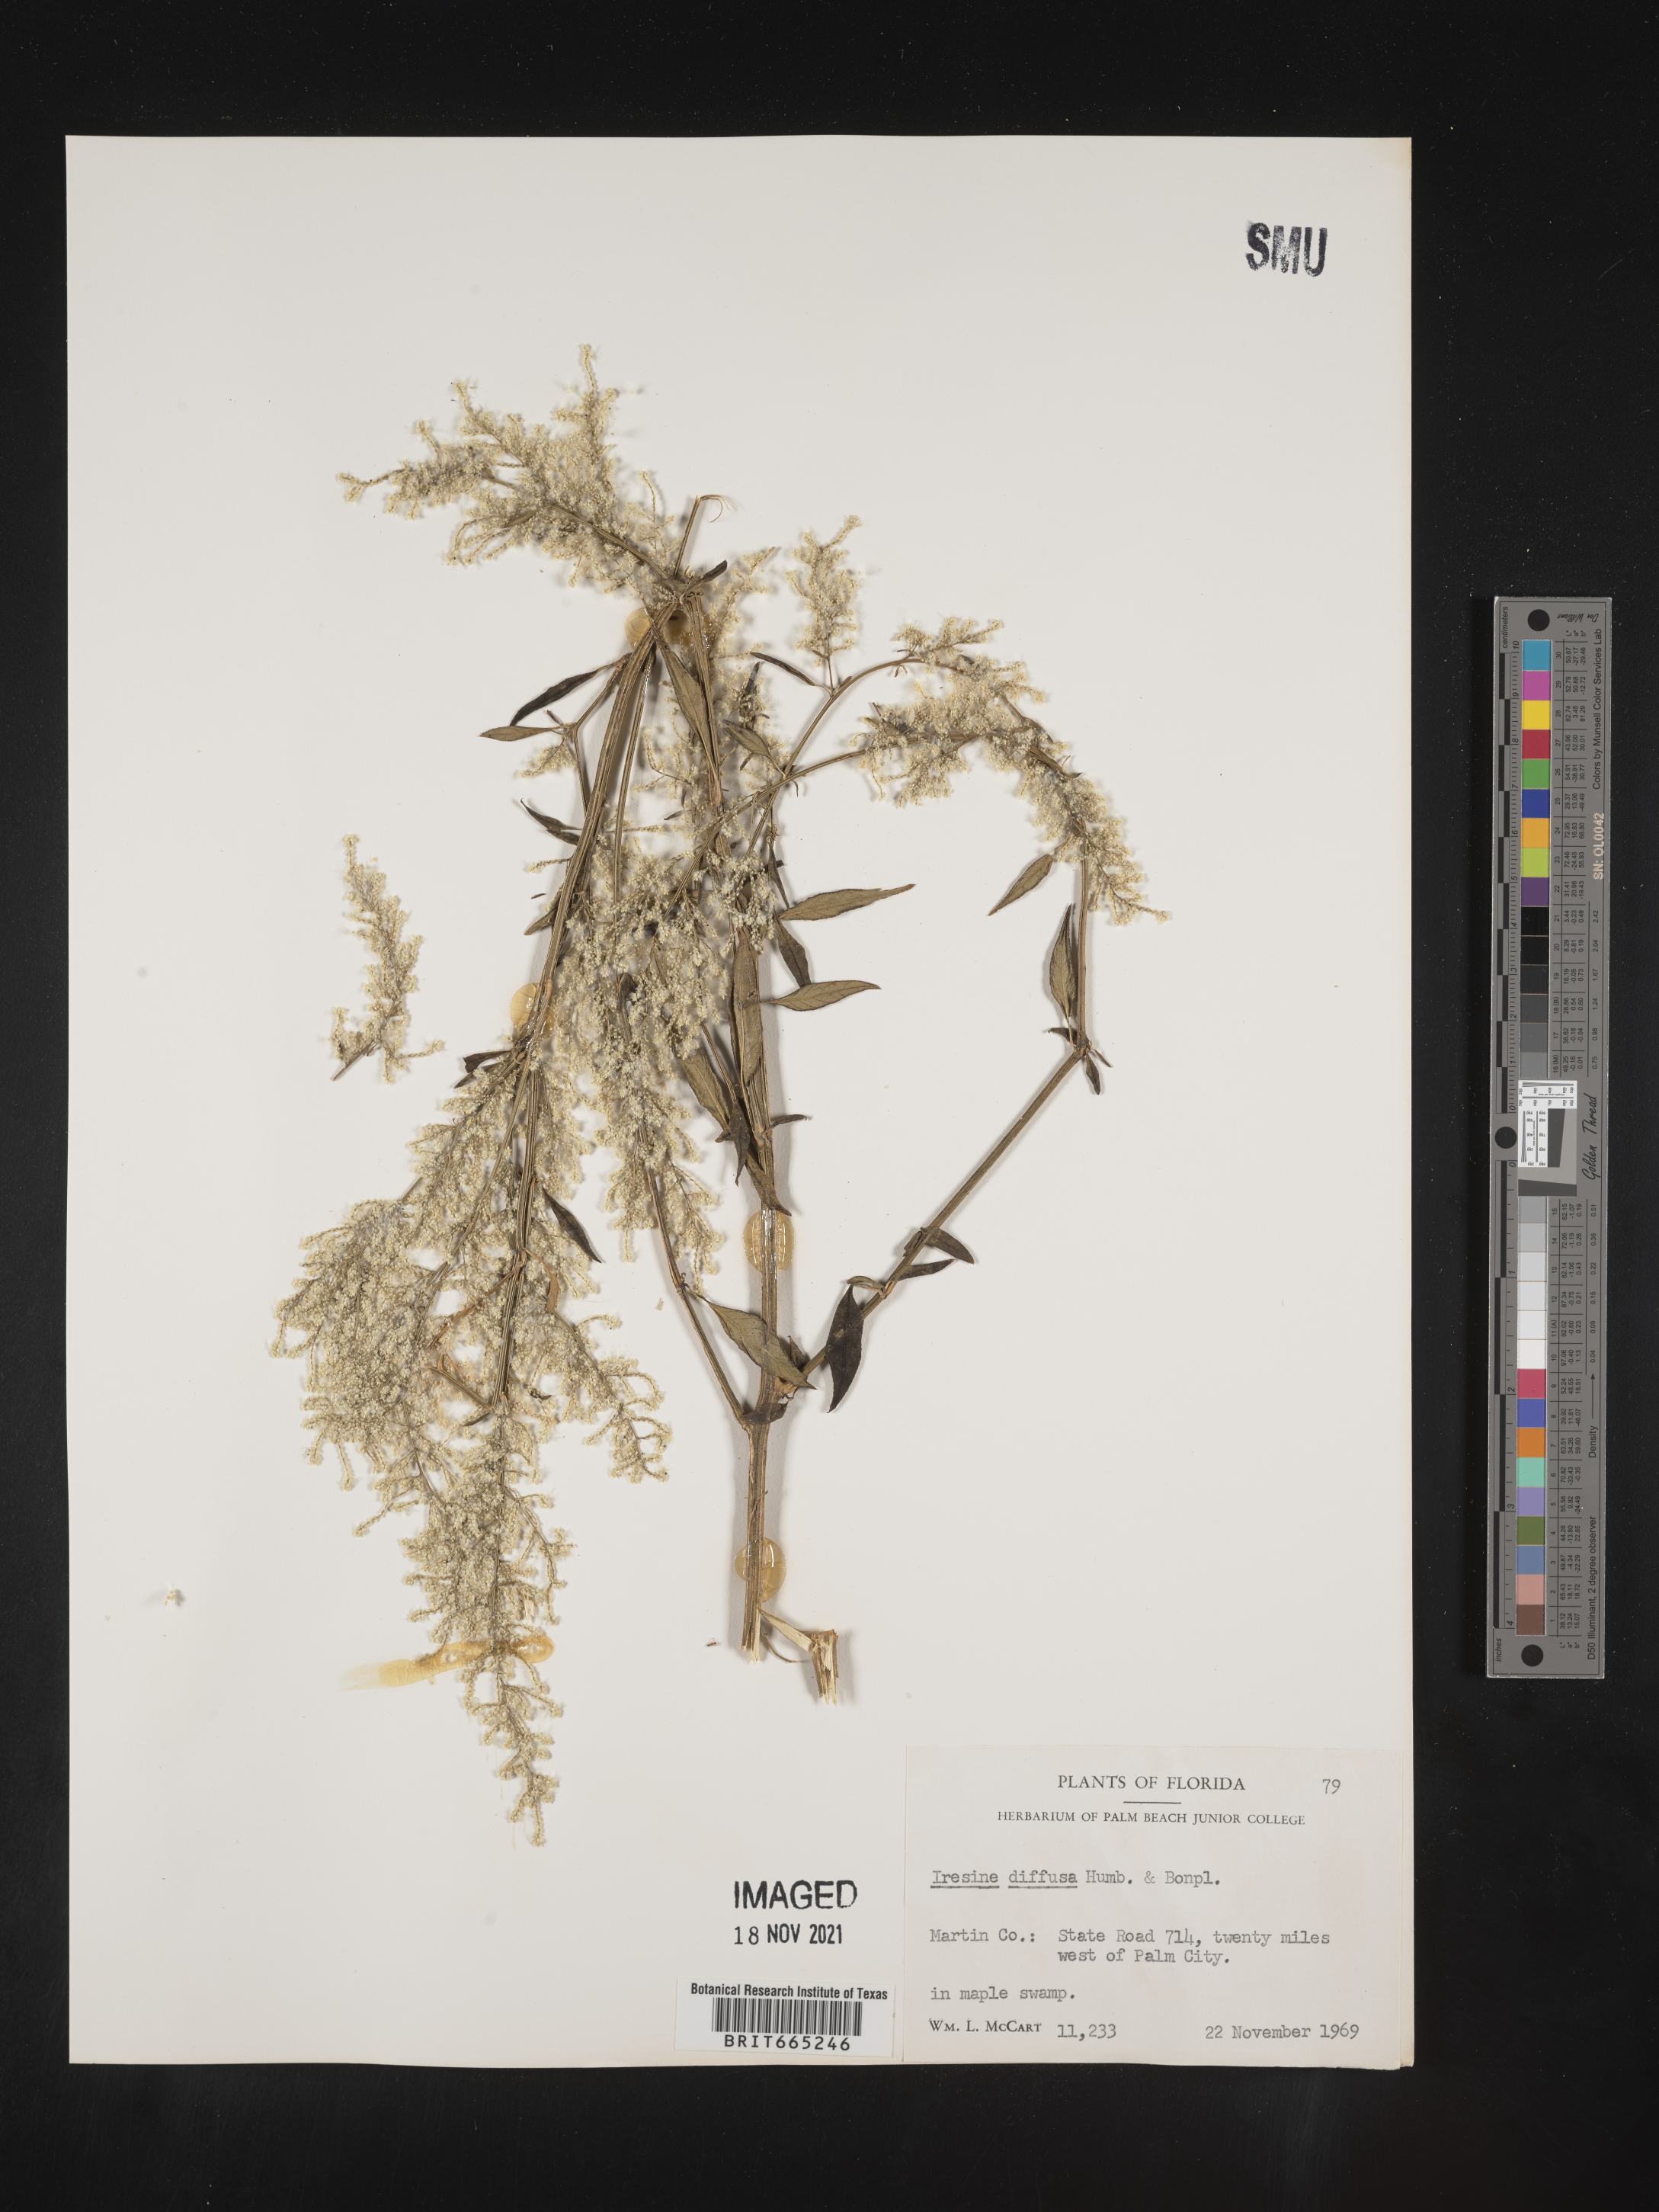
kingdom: Plantae
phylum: Tracheophyta
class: Magnoliopsida
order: Caryophyllales
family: Amaranthaceae
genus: Iresine
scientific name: Iresine
